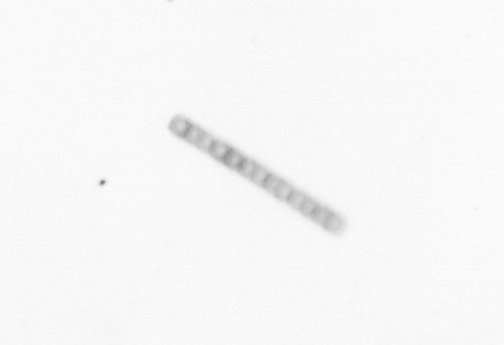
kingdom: Chromista
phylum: Ochrophyta
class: Bacillariophyceae
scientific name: Bacillariophyceae
